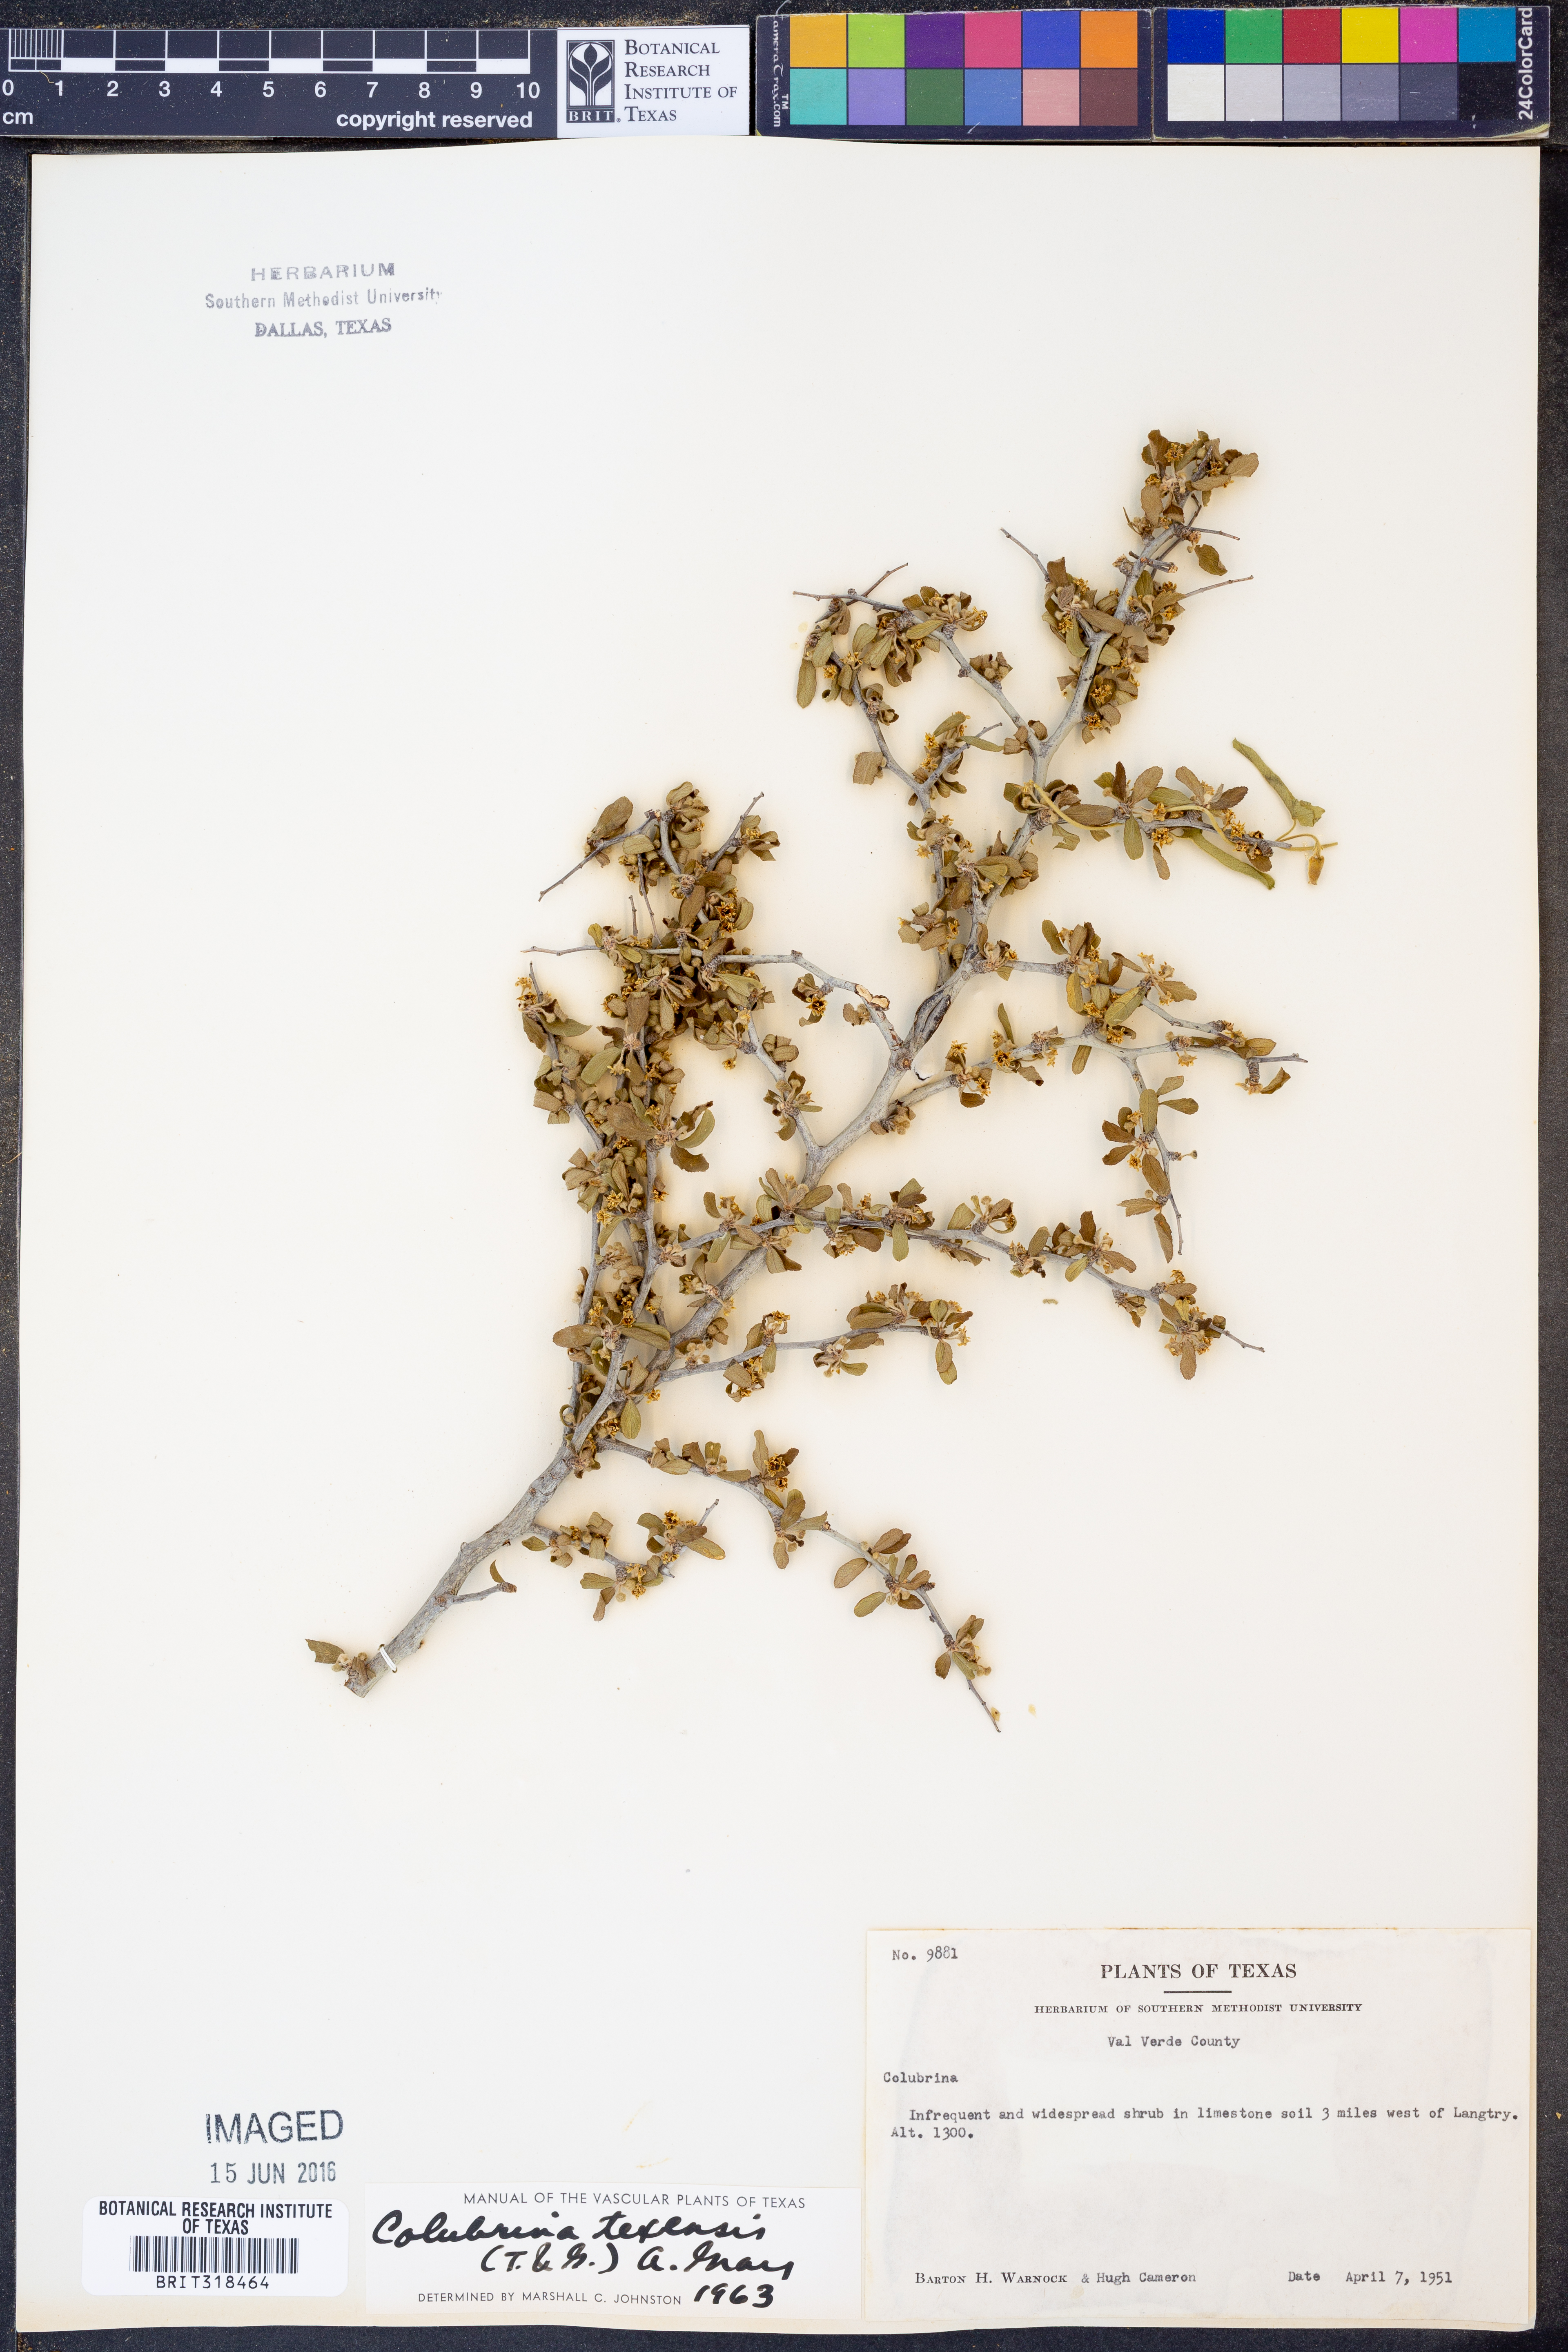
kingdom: Plantae
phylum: Tracheophyta
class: Magnoliopsida
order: Rosales
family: Rhamnaceae
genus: Colubrina
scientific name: Colubrina texensis
